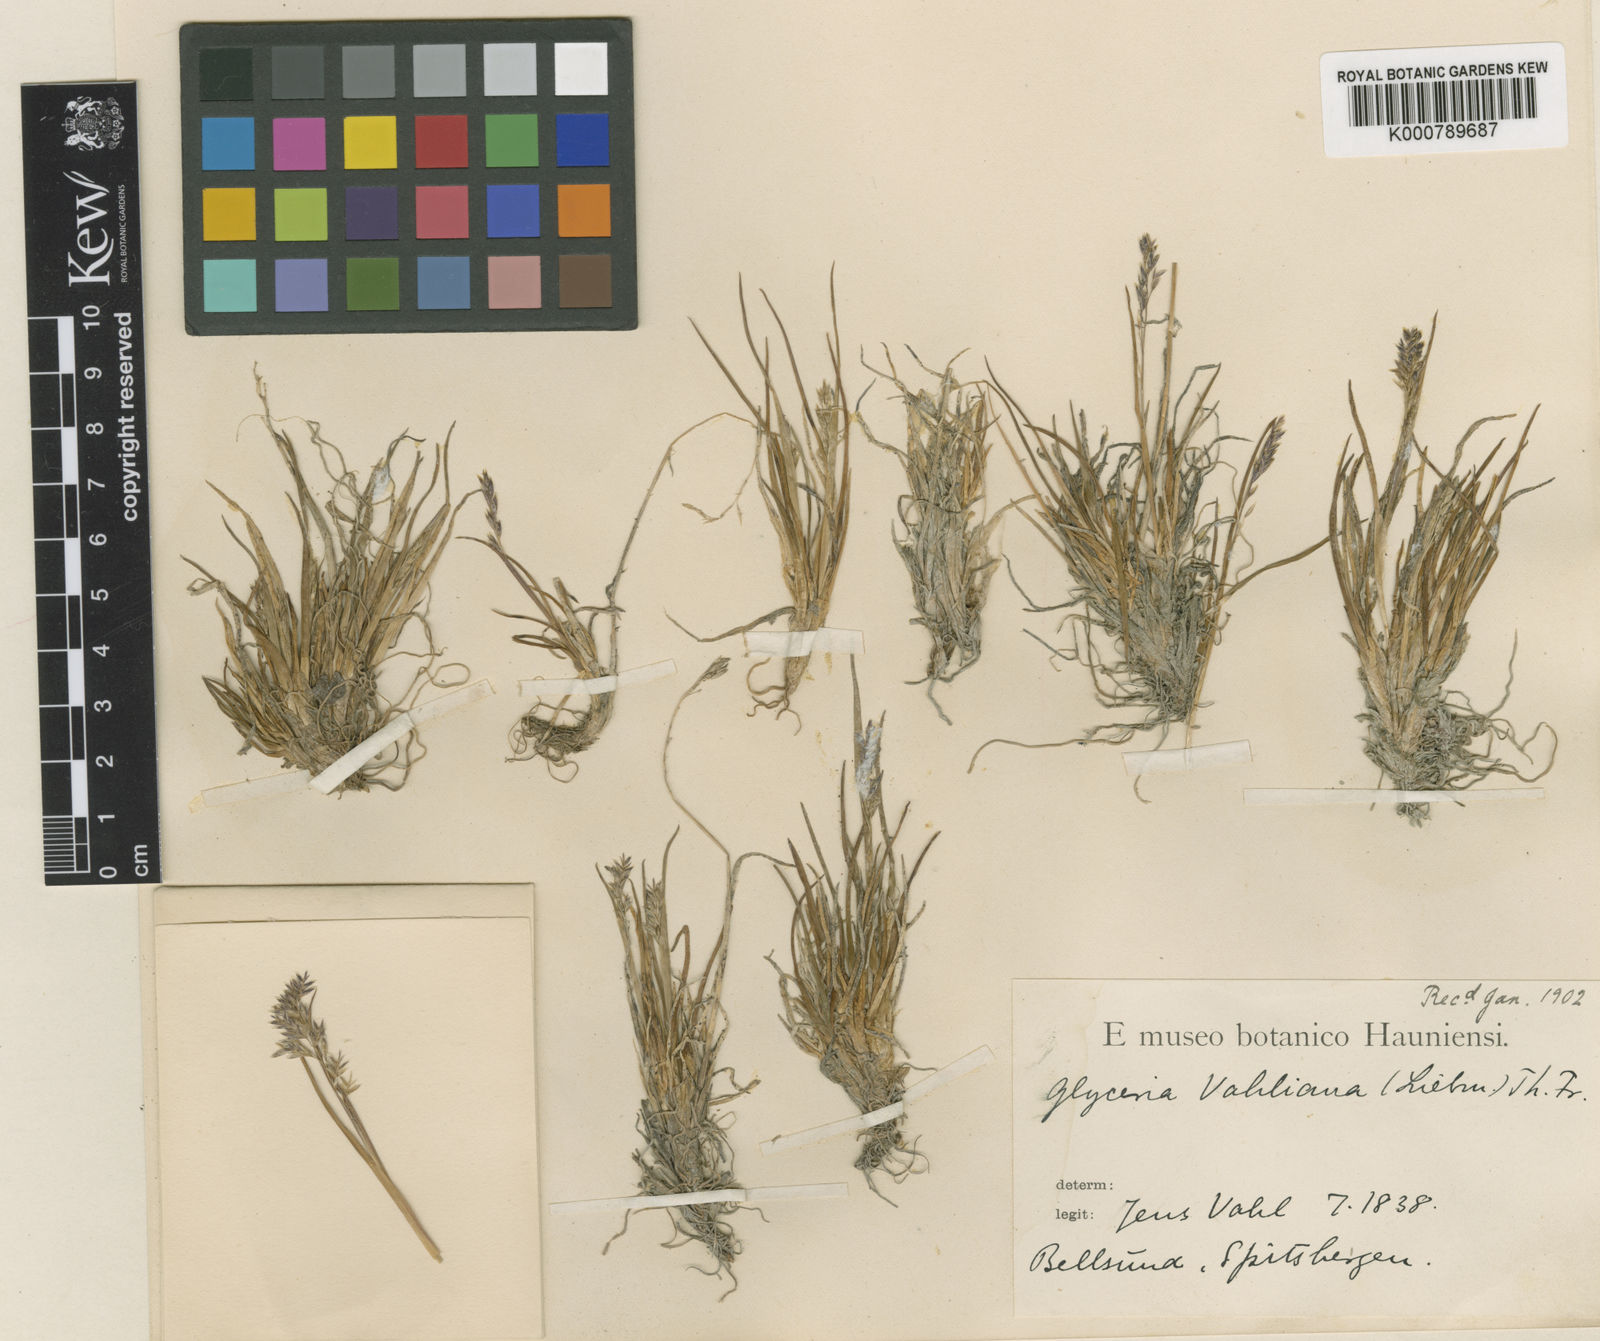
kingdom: Plantae
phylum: Tracheophyta
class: Liliopsida
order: Poales
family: Poaceae
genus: Puccinellia
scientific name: Puccinellia vahliana
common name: Vahl's alkaligrass
